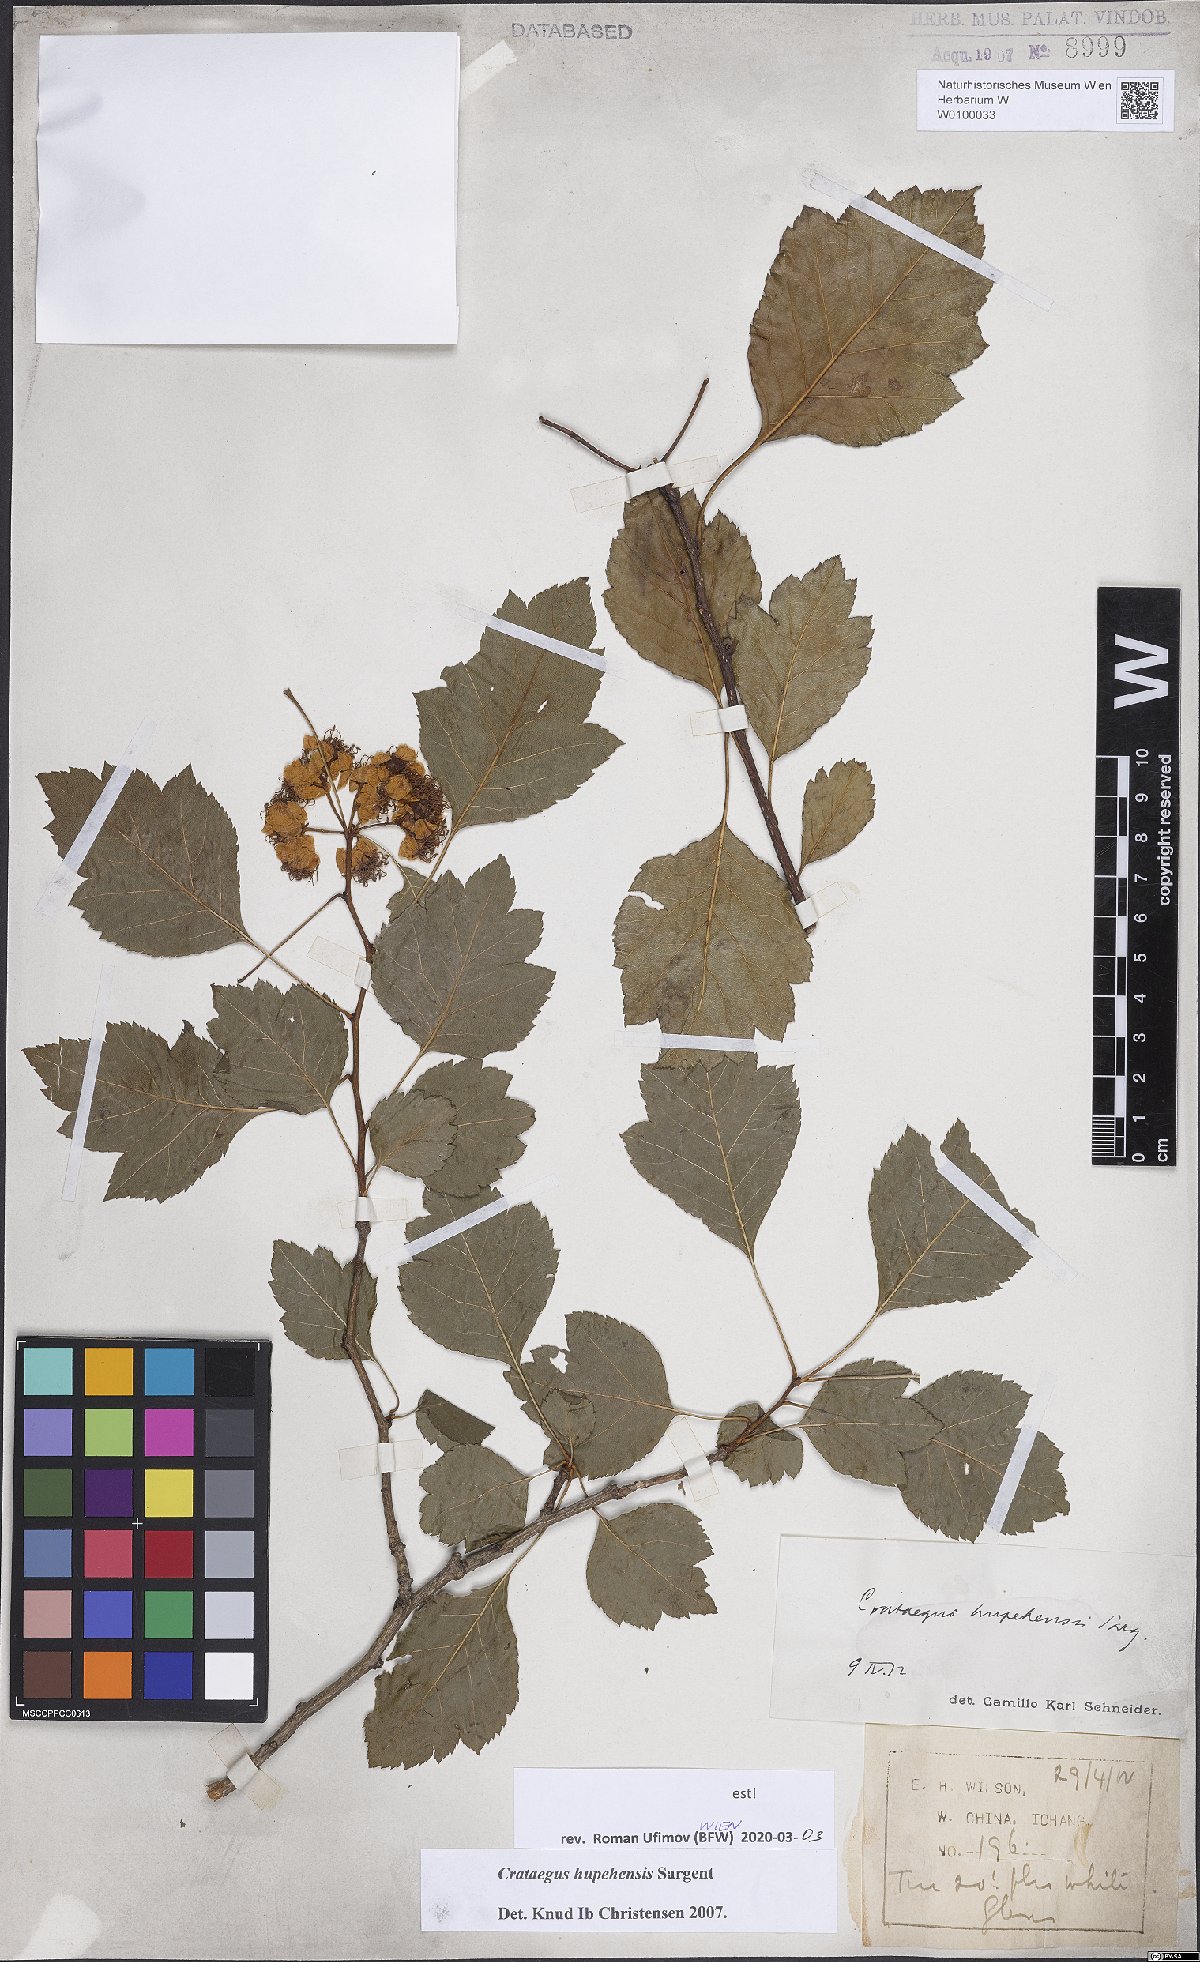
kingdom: Plantae
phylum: Tracheophyta
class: Magnoliopsida
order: Rosales
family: Rosaceae
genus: Crataegus
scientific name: Crataegus hupehensis
